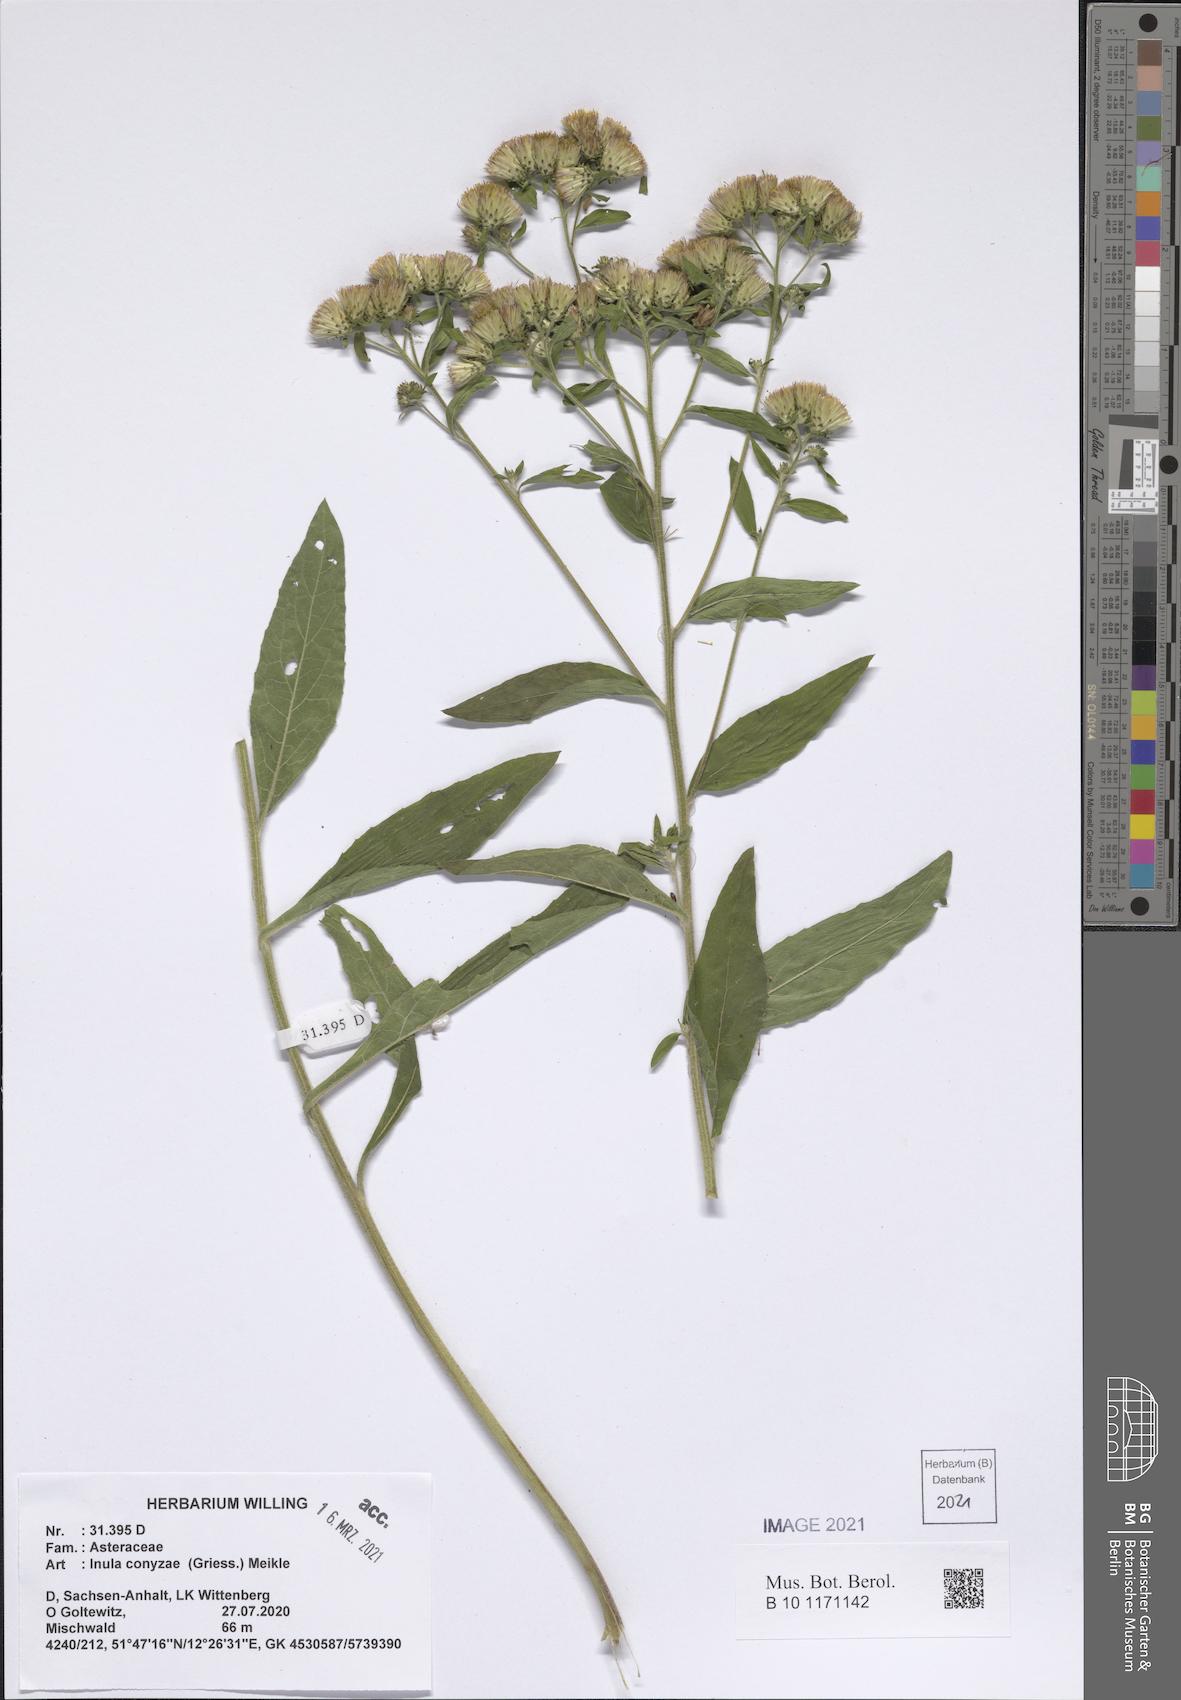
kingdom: Plantae
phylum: Tracheophyta
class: Magnoliopsida
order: Asterales
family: Asteraceae
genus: Pentanema
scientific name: Pentanema squarrosum
